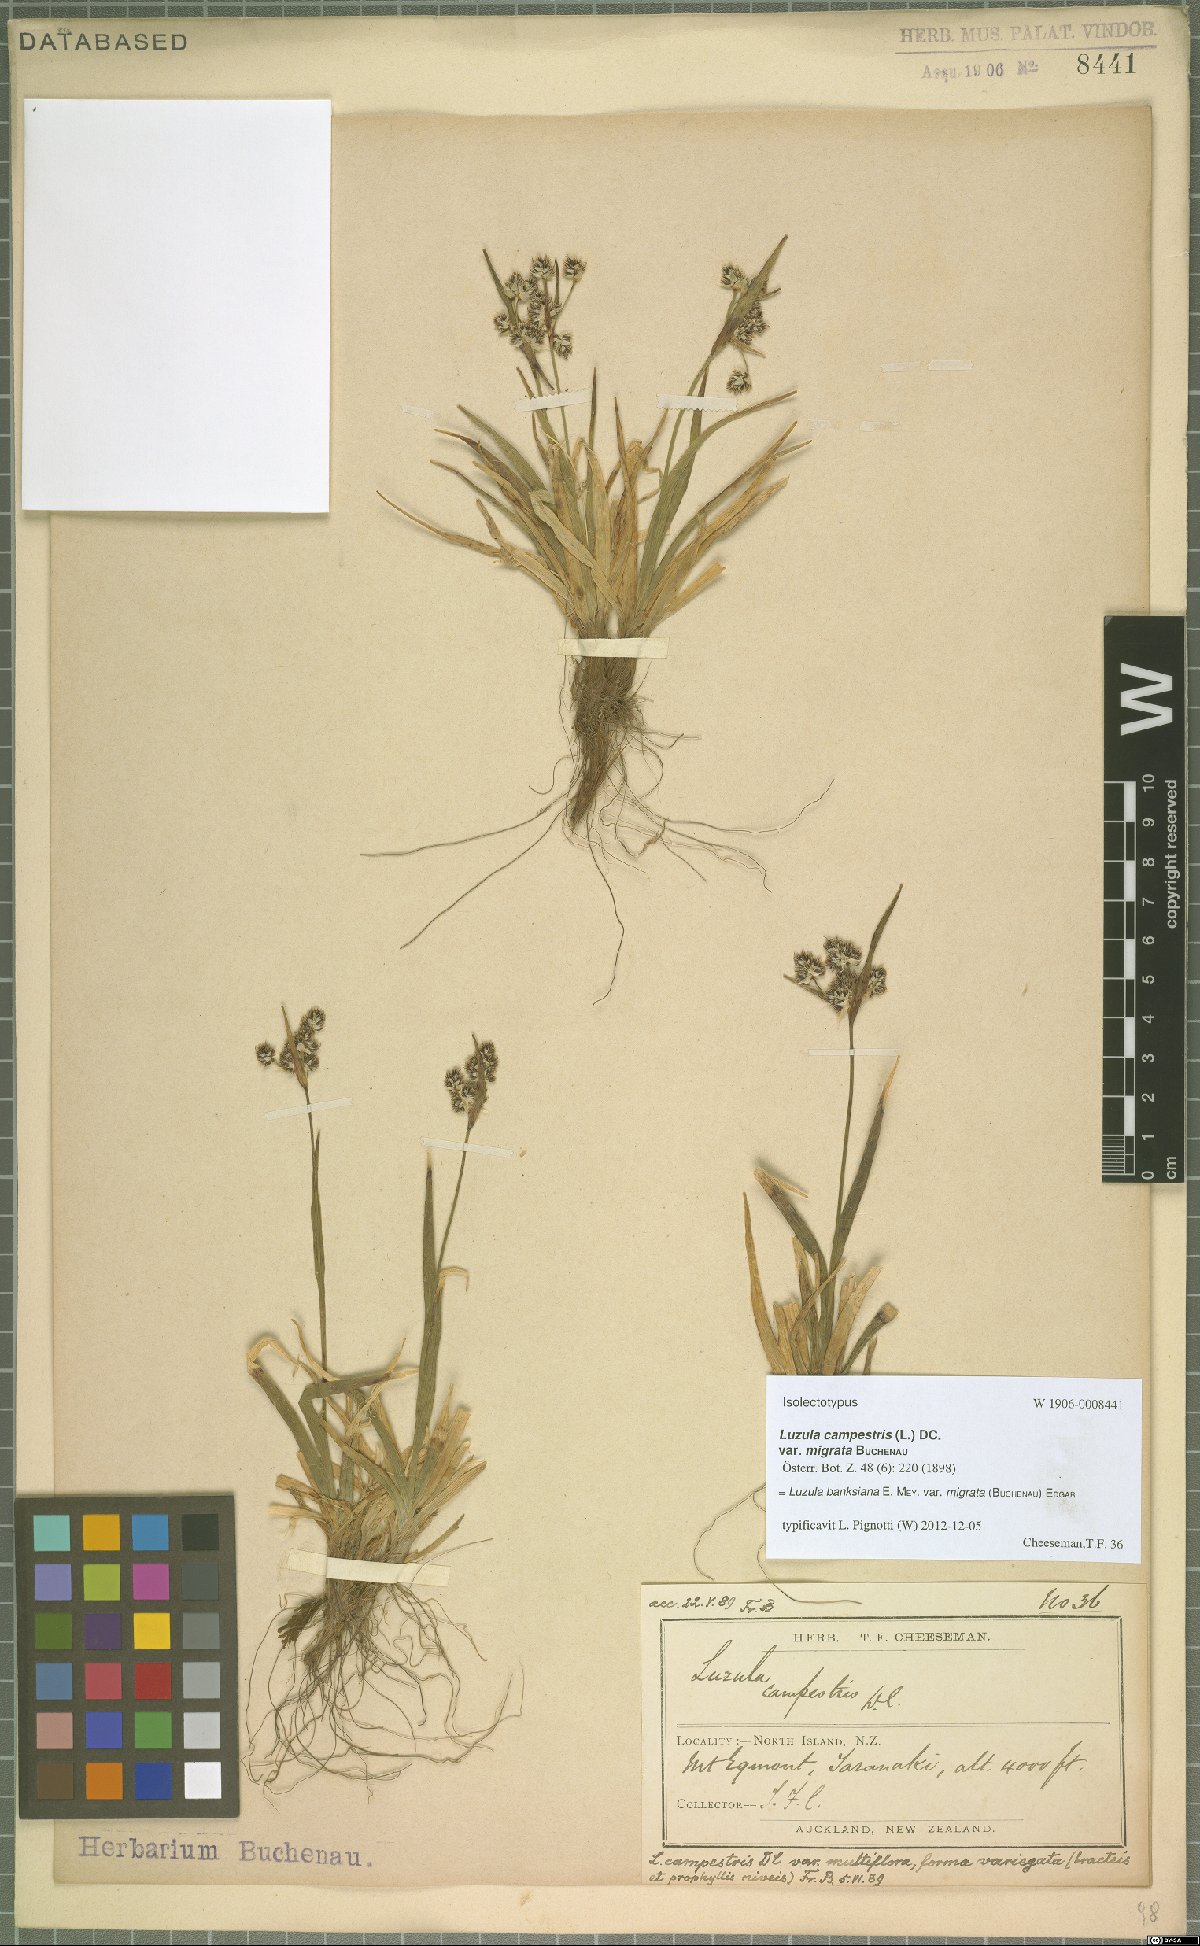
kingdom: Plantae
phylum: Tracheophyta
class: Liliopsida
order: Poales
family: Juncaceae
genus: Luzula
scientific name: Luzula banksiana
